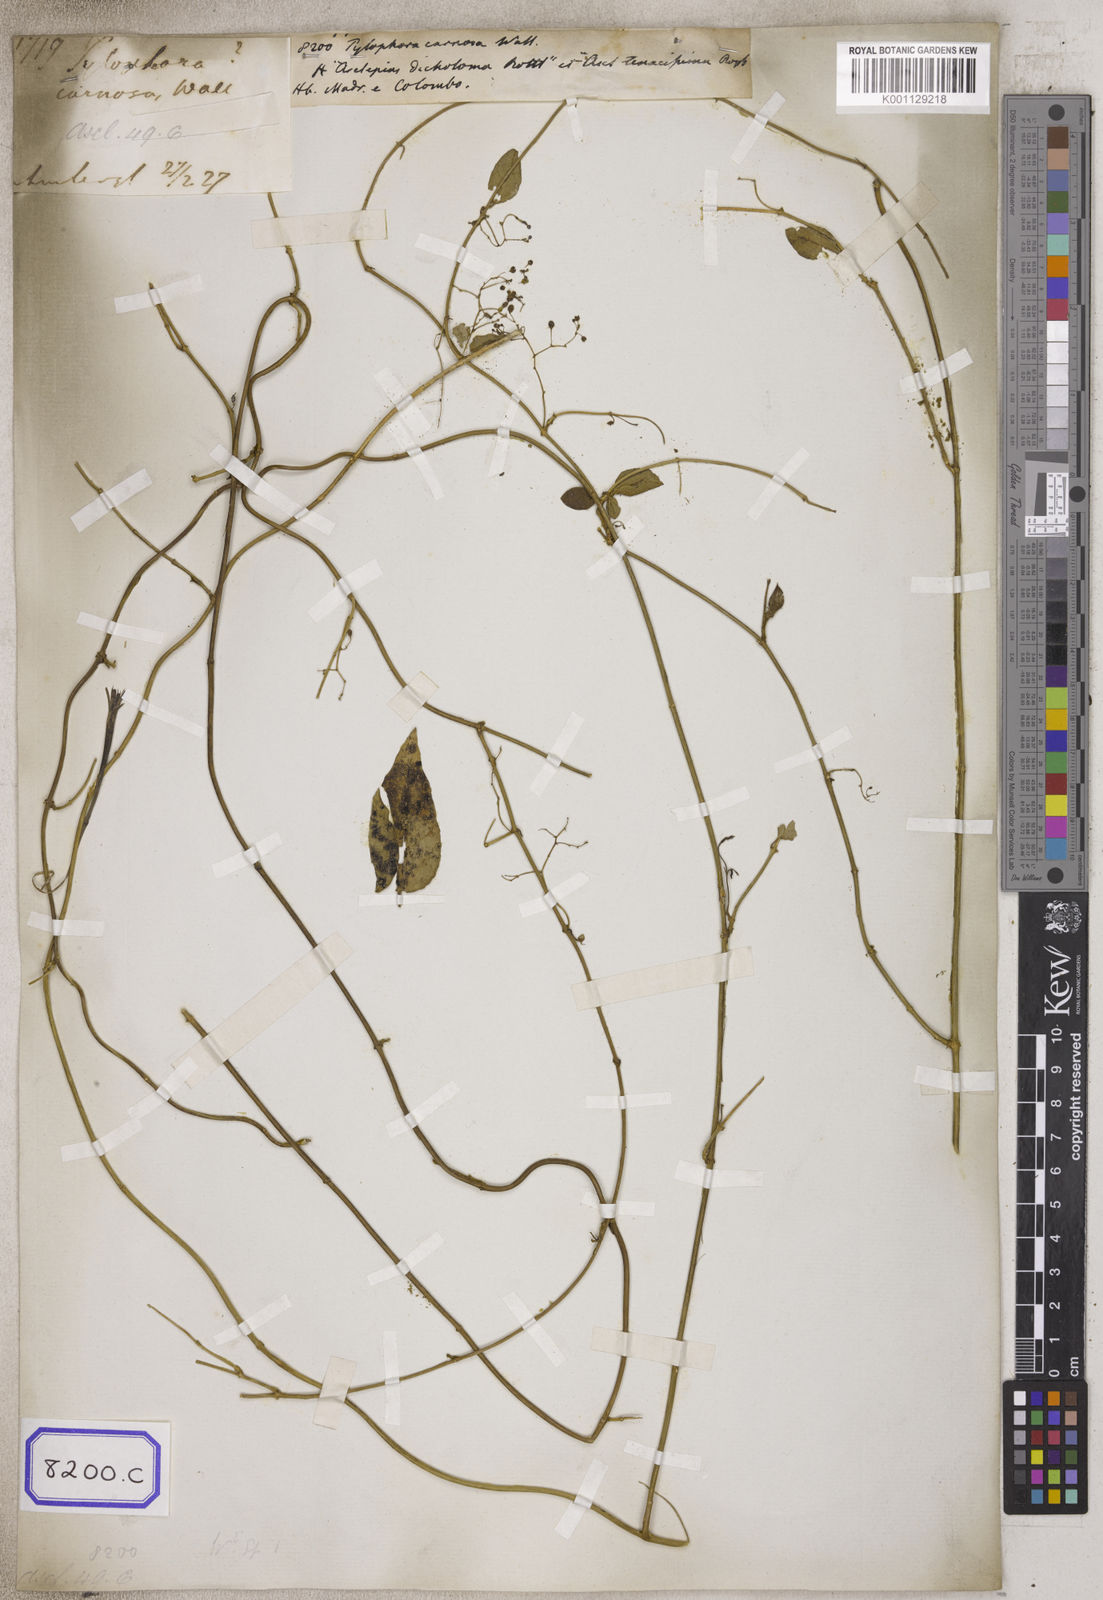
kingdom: Plantae
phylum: Tracheophyta
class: Magnoliopsida
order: Gentianales
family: Apocynaceae
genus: Vincetoxicum
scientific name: Vincetoxicum flexuosum
